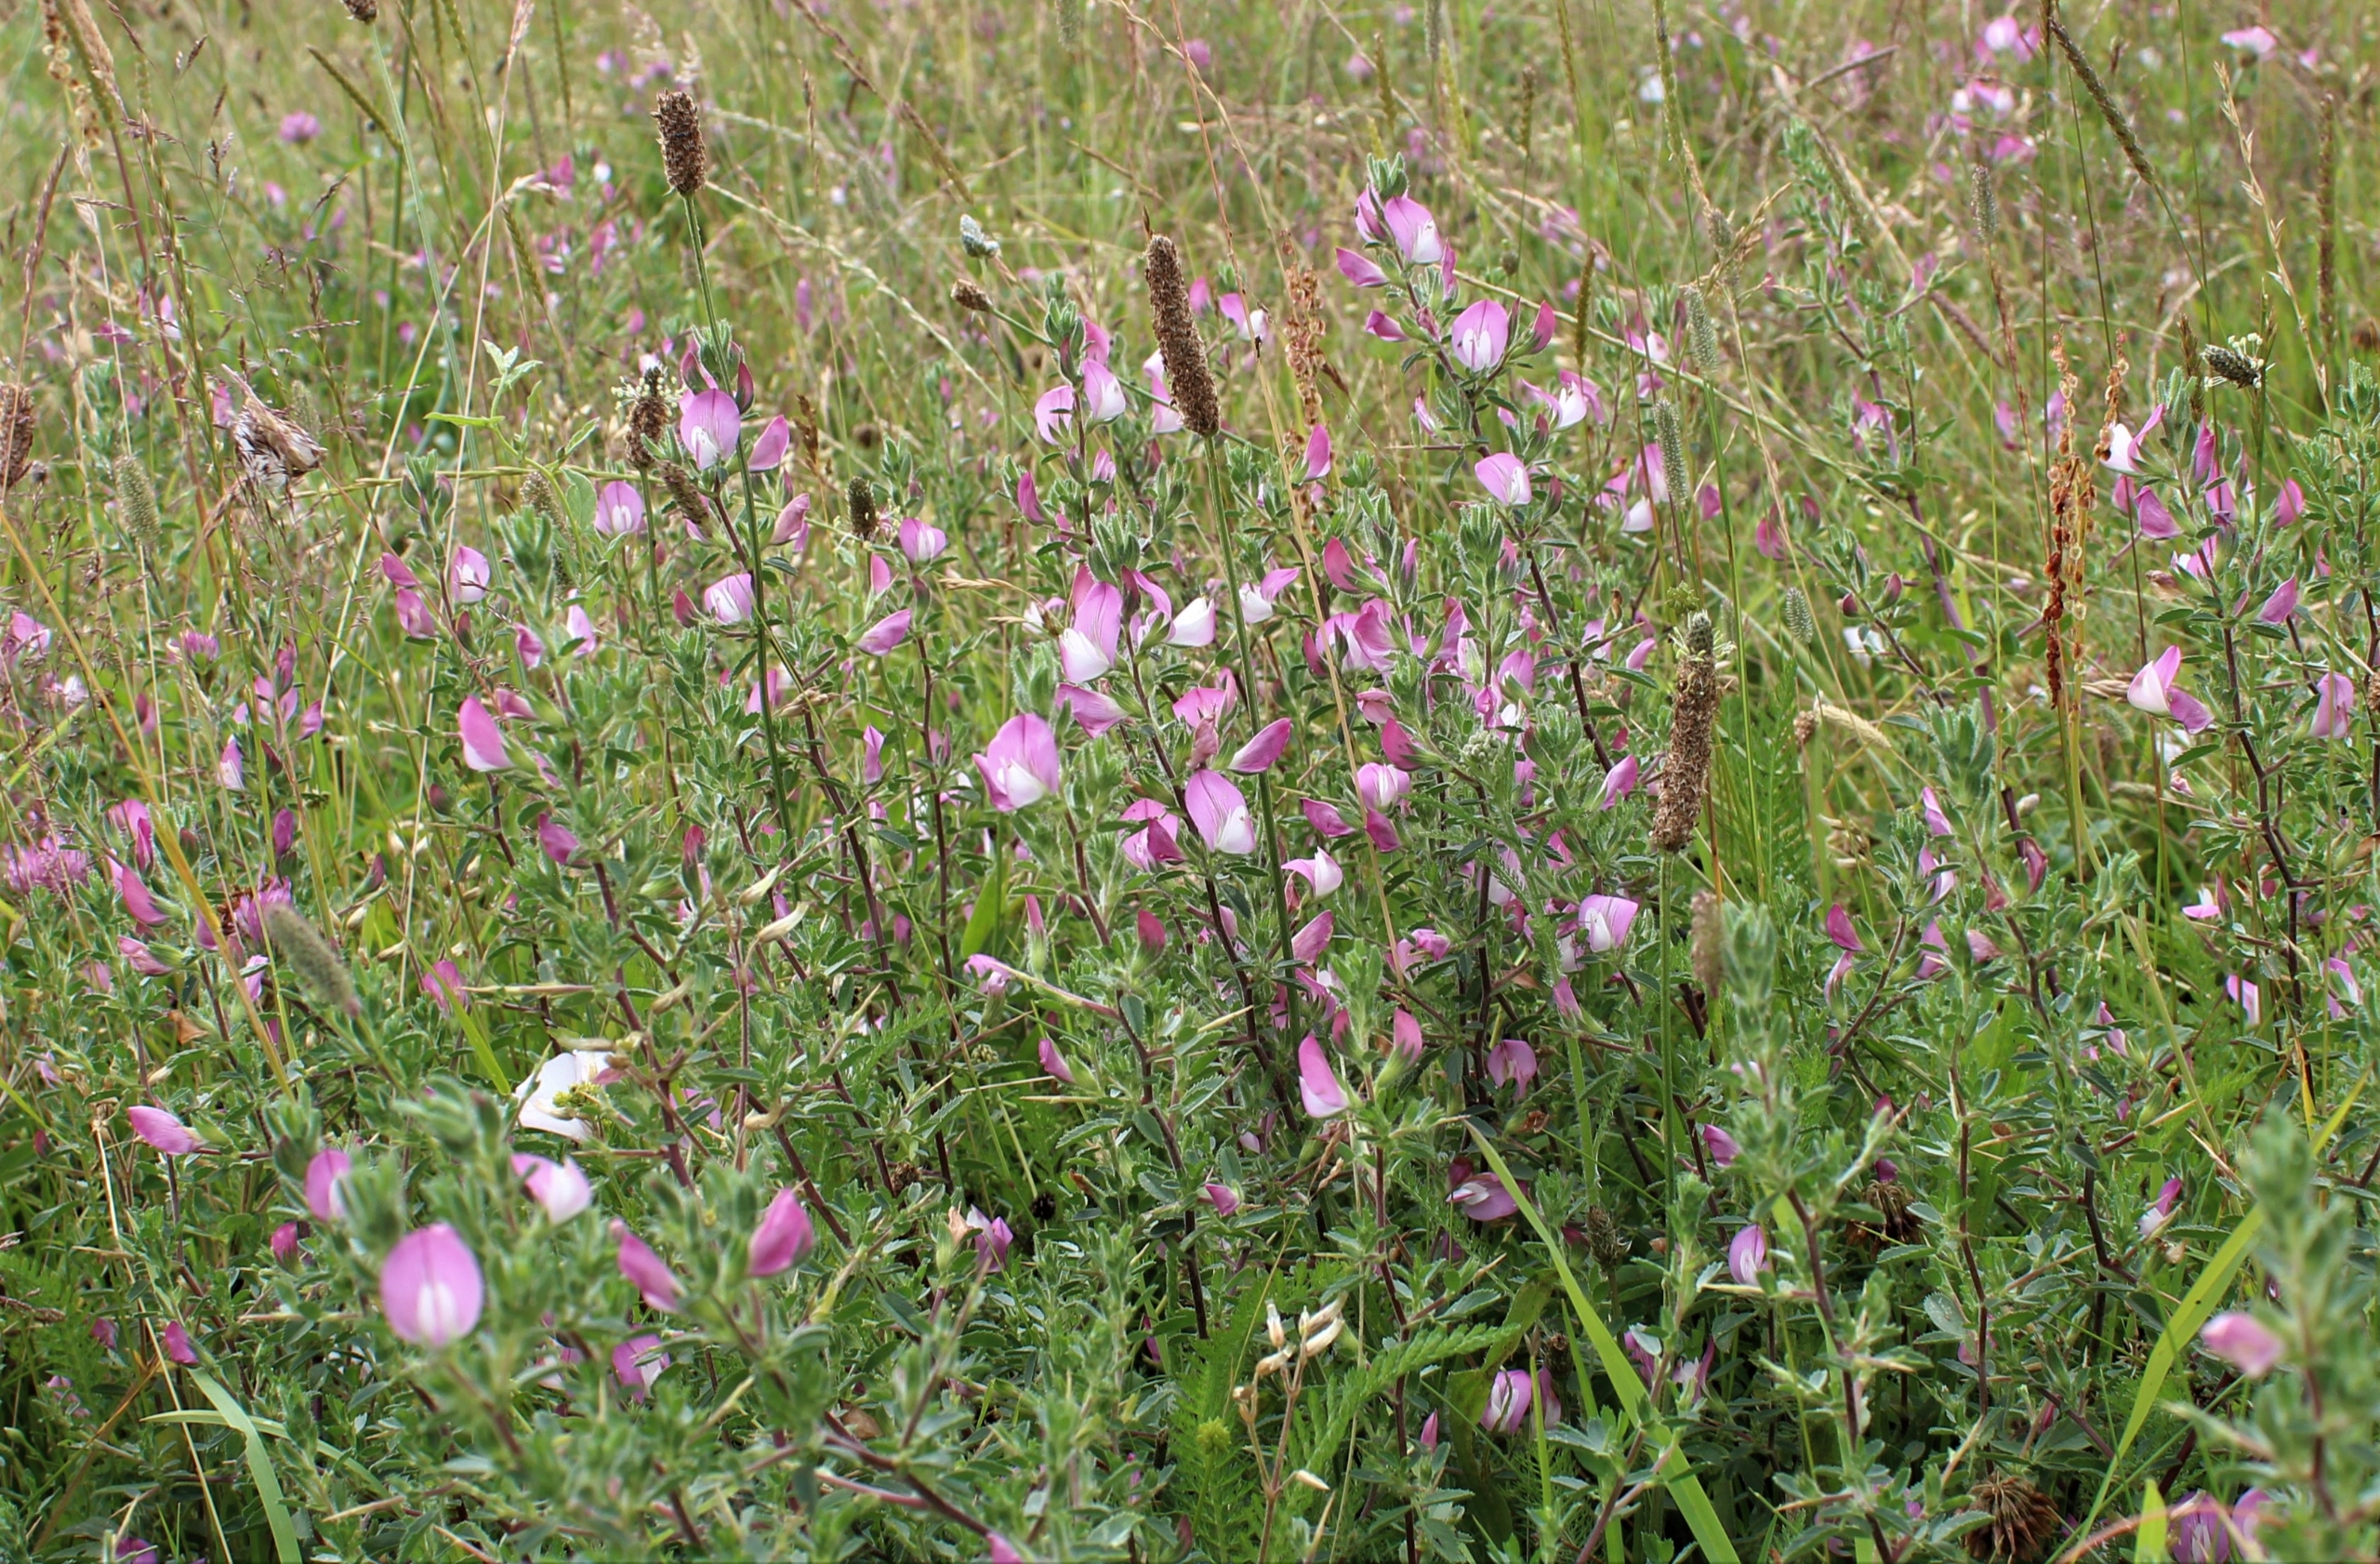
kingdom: Plantae
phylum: Tracheophyta
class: Magnoliopsida
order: Fabales
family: Fabaceae
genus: Ononis
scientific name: Ononis spinosa
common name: Strand-krageklo
